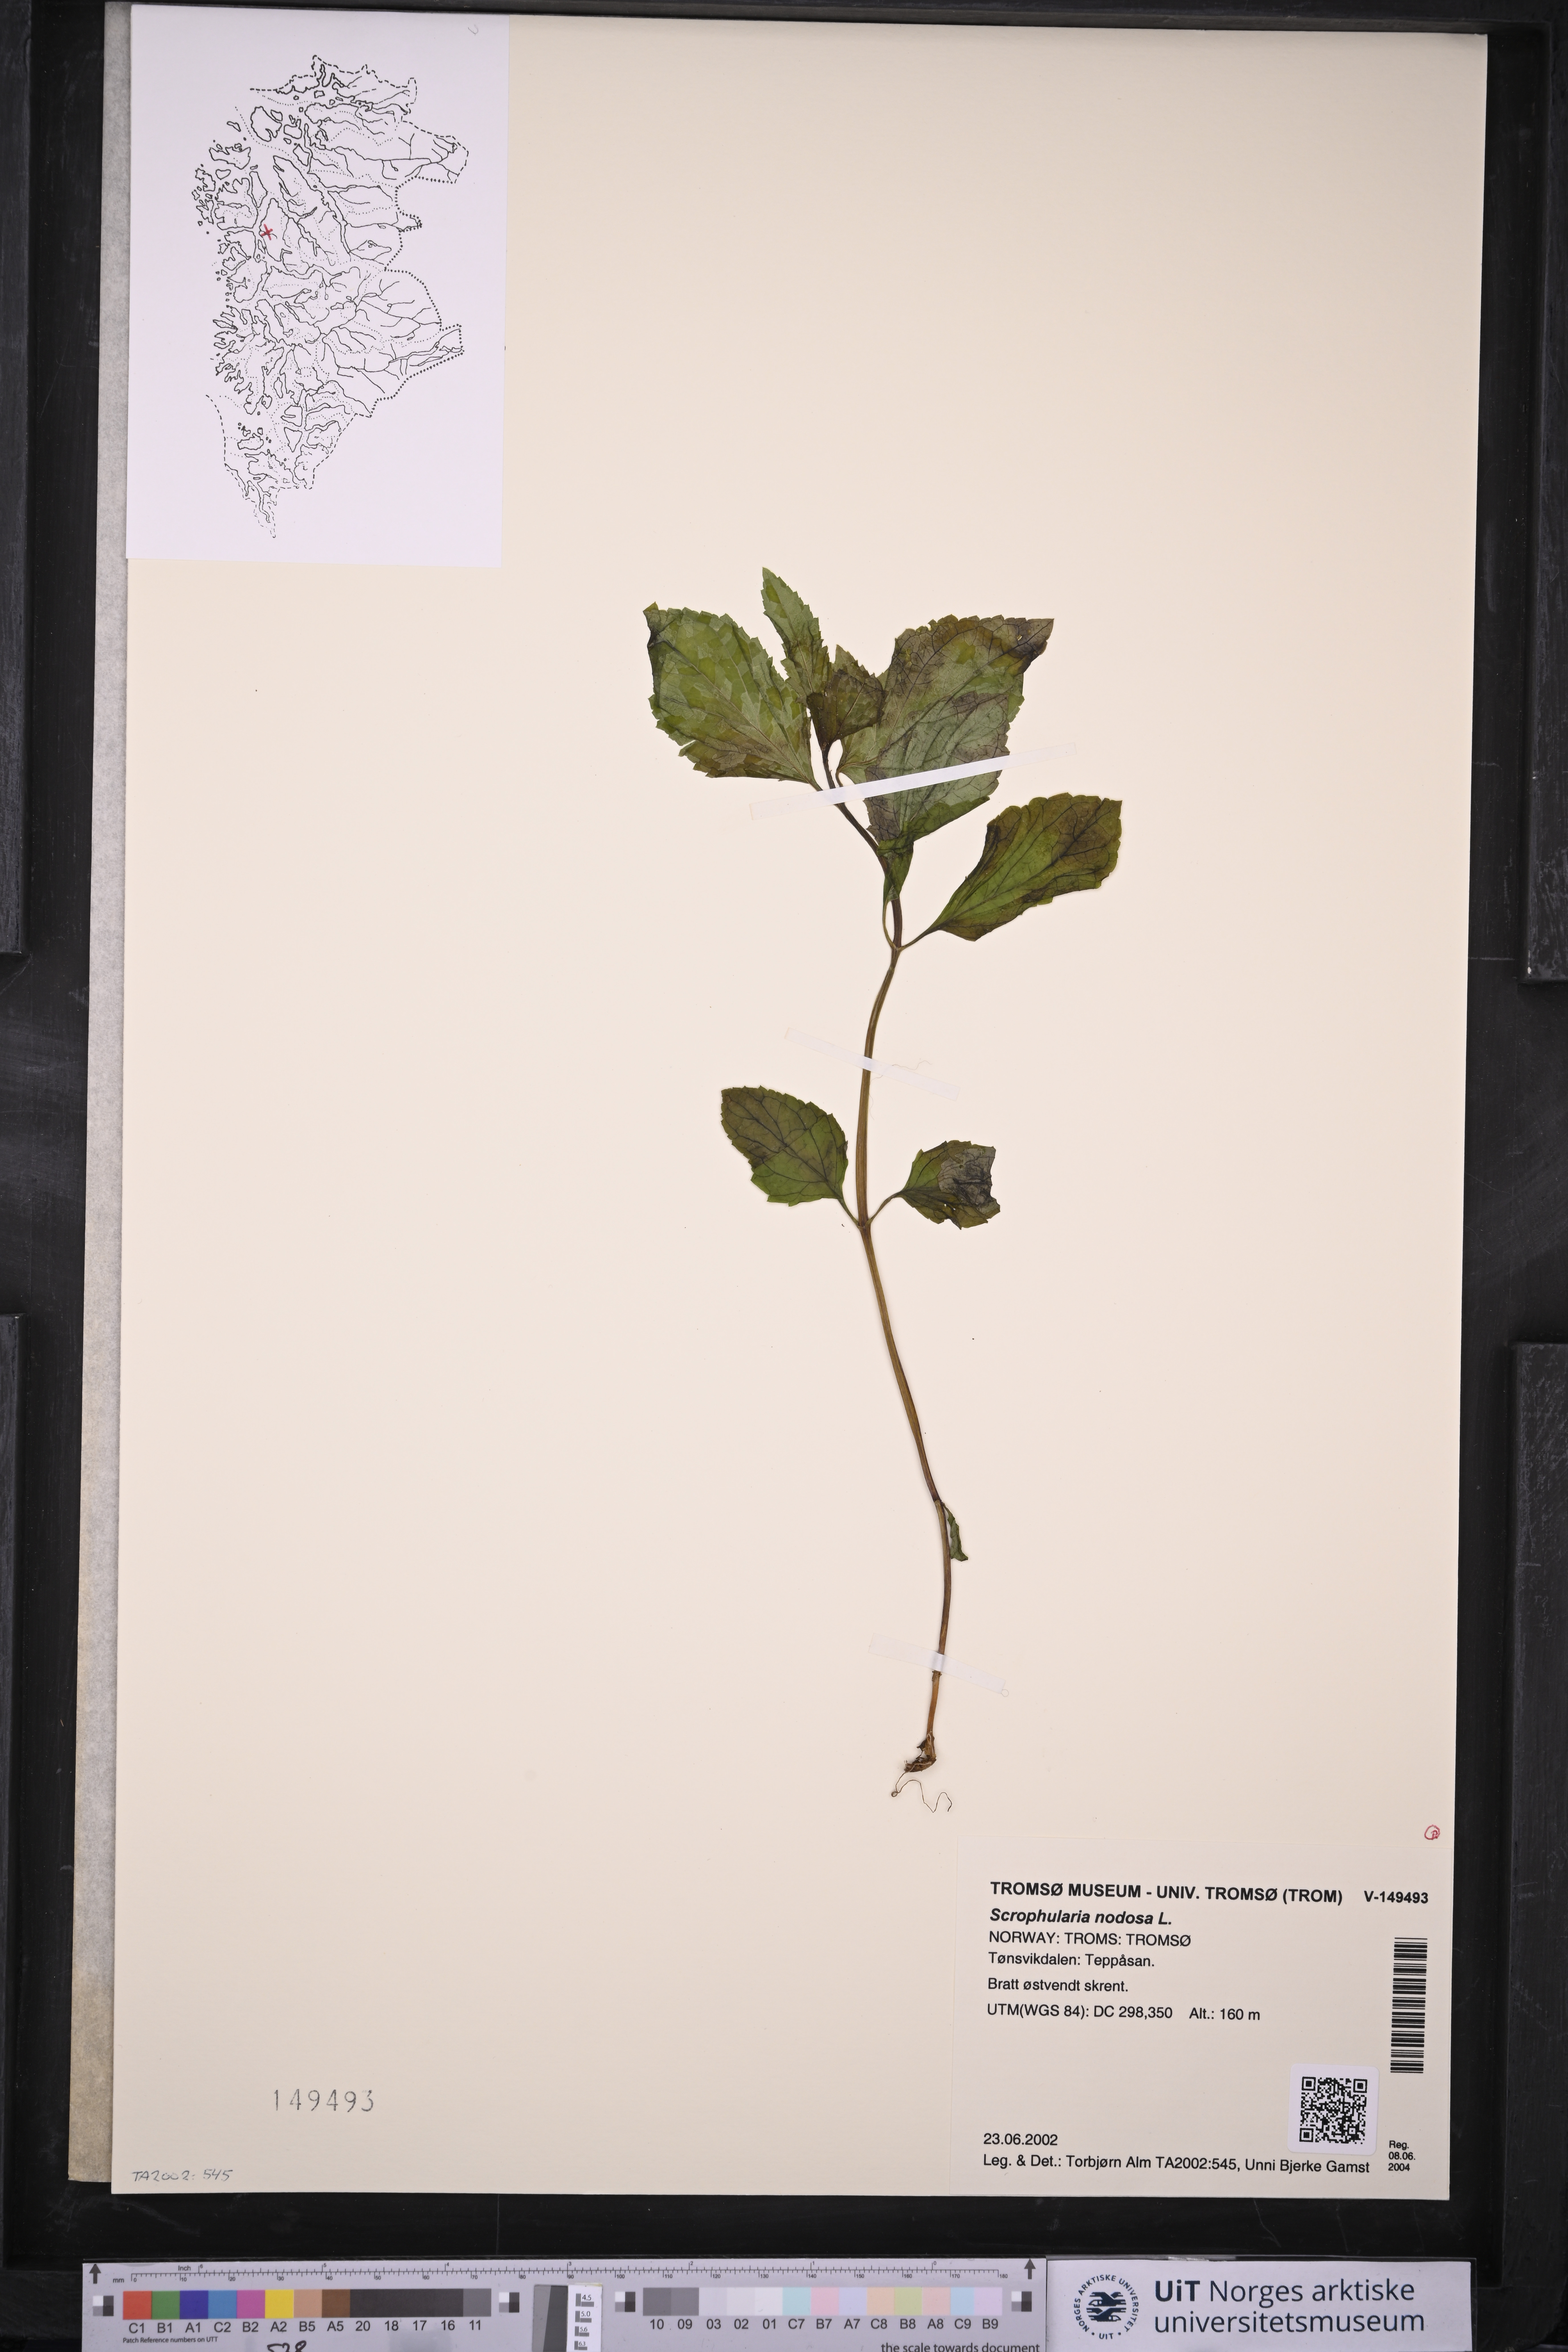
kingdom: Plantae
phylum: Tracheophyta
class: Magnoliopsida
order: Lamiales
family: Scrophulariaceae
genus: Scrophularia
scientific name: Scrophularia nodosa
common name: Common figwort
